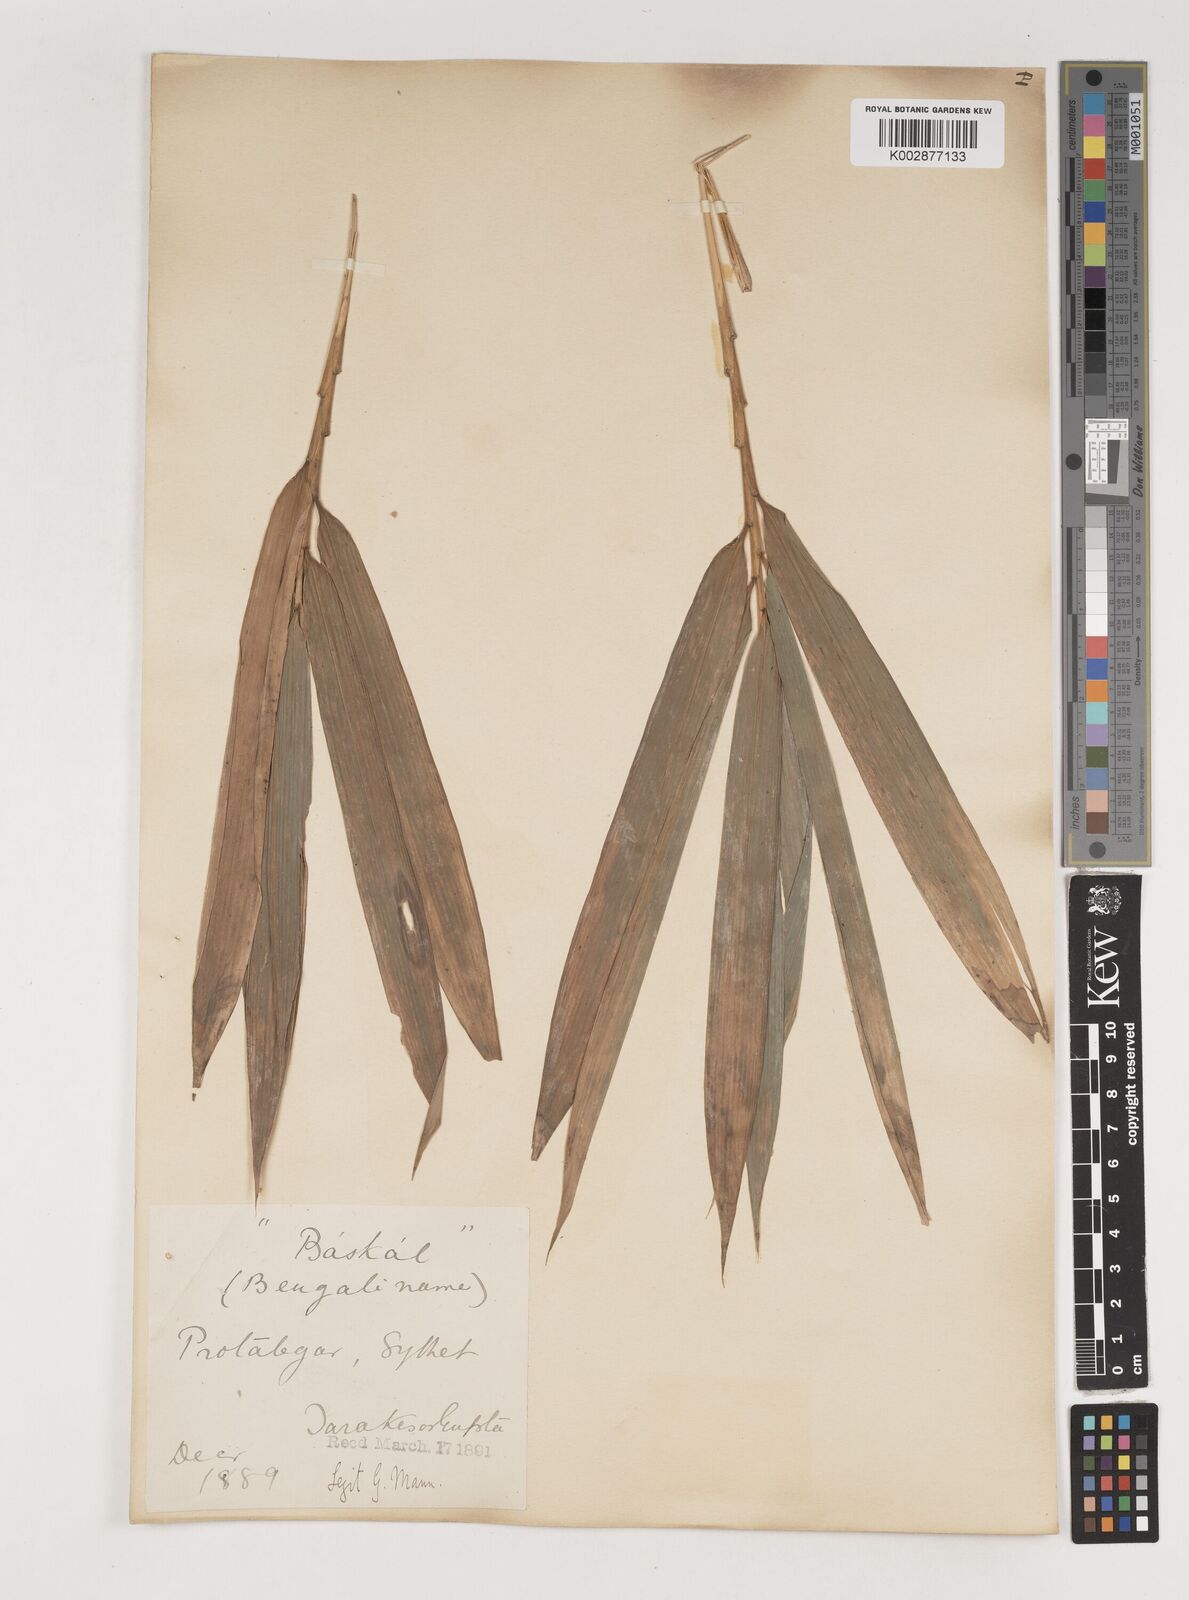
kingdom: Plantae
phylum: Tracheophyta
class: Liliopsida
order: Poales
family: Poaceae
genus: Bambusa
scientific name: Bambusa
